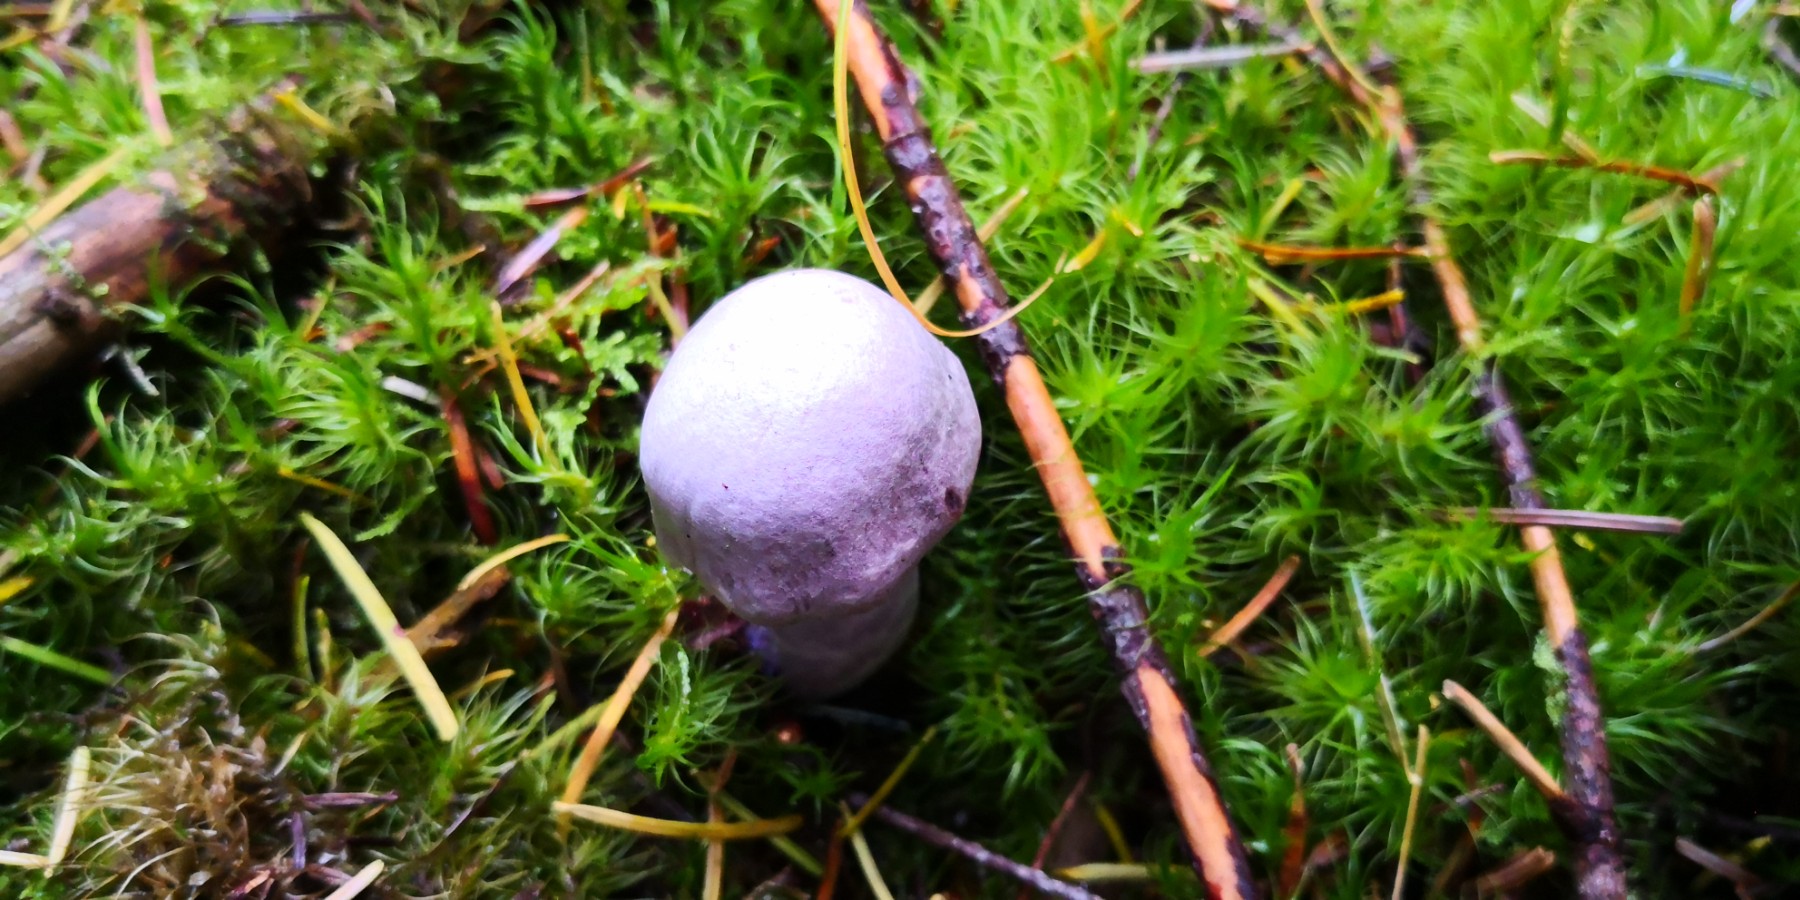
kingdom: Fungi
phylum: Basidiomycota
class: Agaricomycetes
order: Agaricales
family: Cortinariaceae
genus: Cortinarius
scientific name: Cortinarius camphoratus
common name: stinkende slørhat
